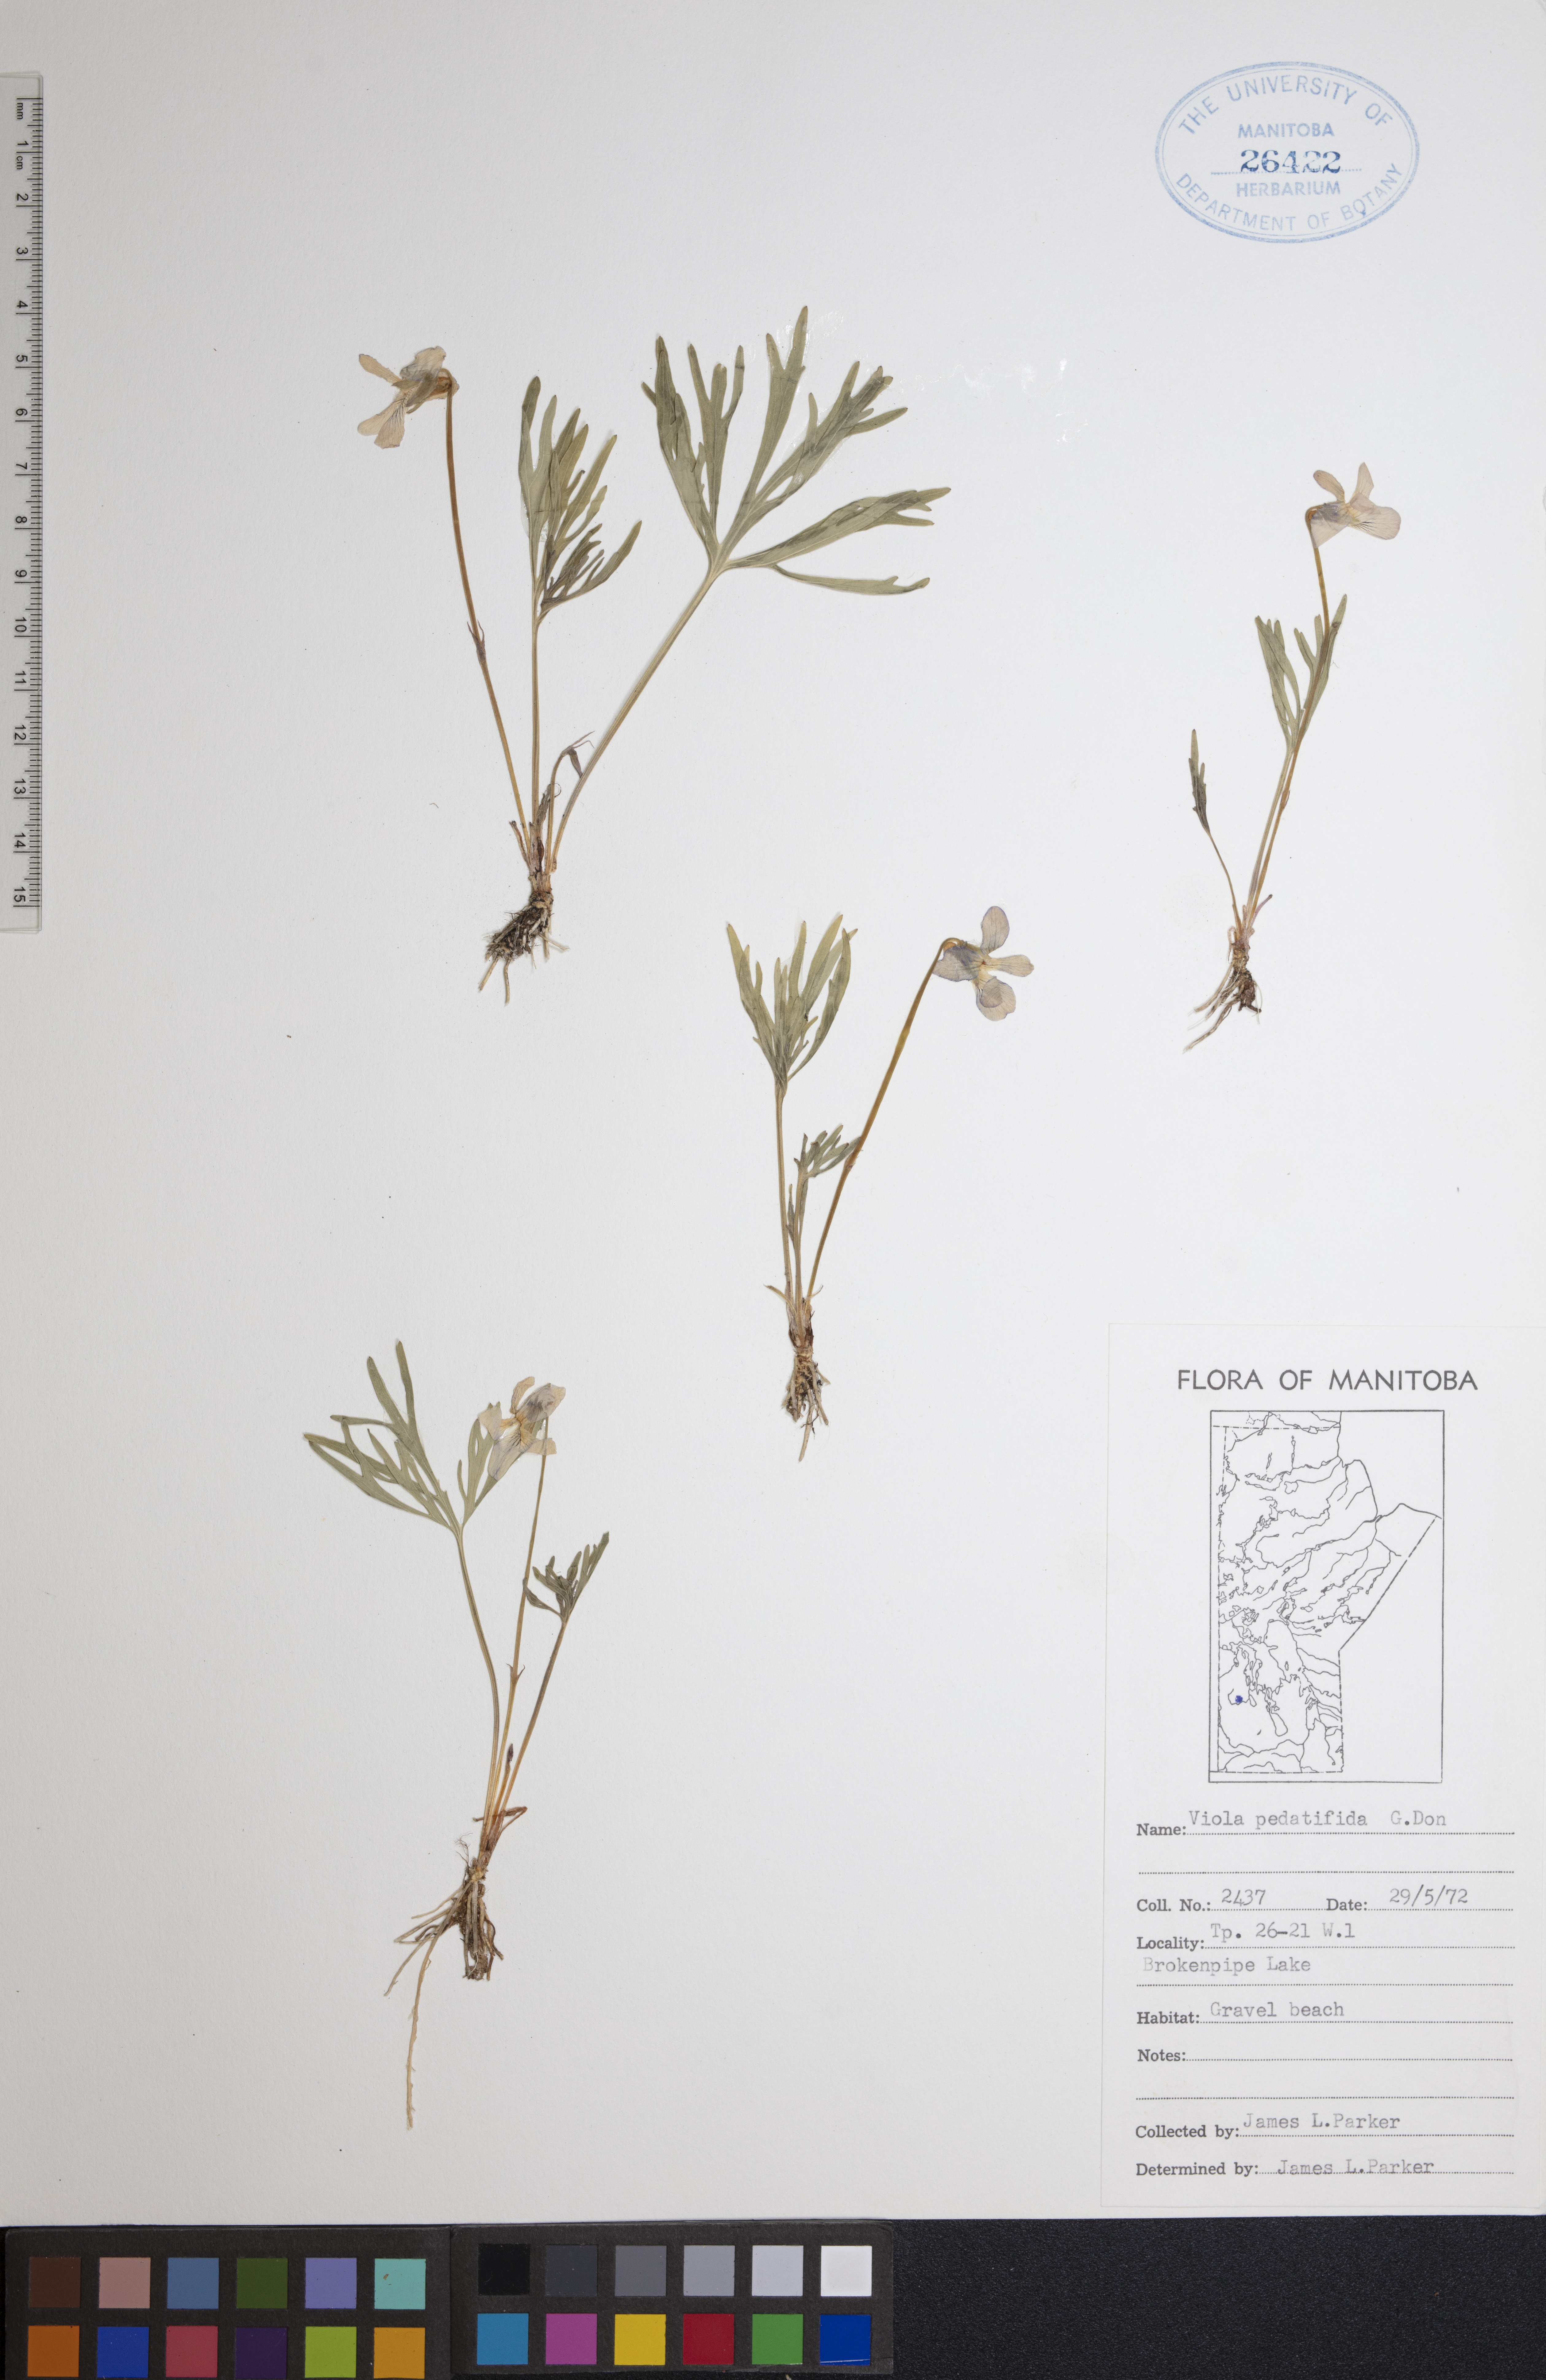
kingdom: Plantae
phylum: Tracheophyta
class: Magnoliopsida
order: Malpighiales
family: Violaceae
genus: Viola
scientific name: Viola pedatifida
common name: Prairie violet
